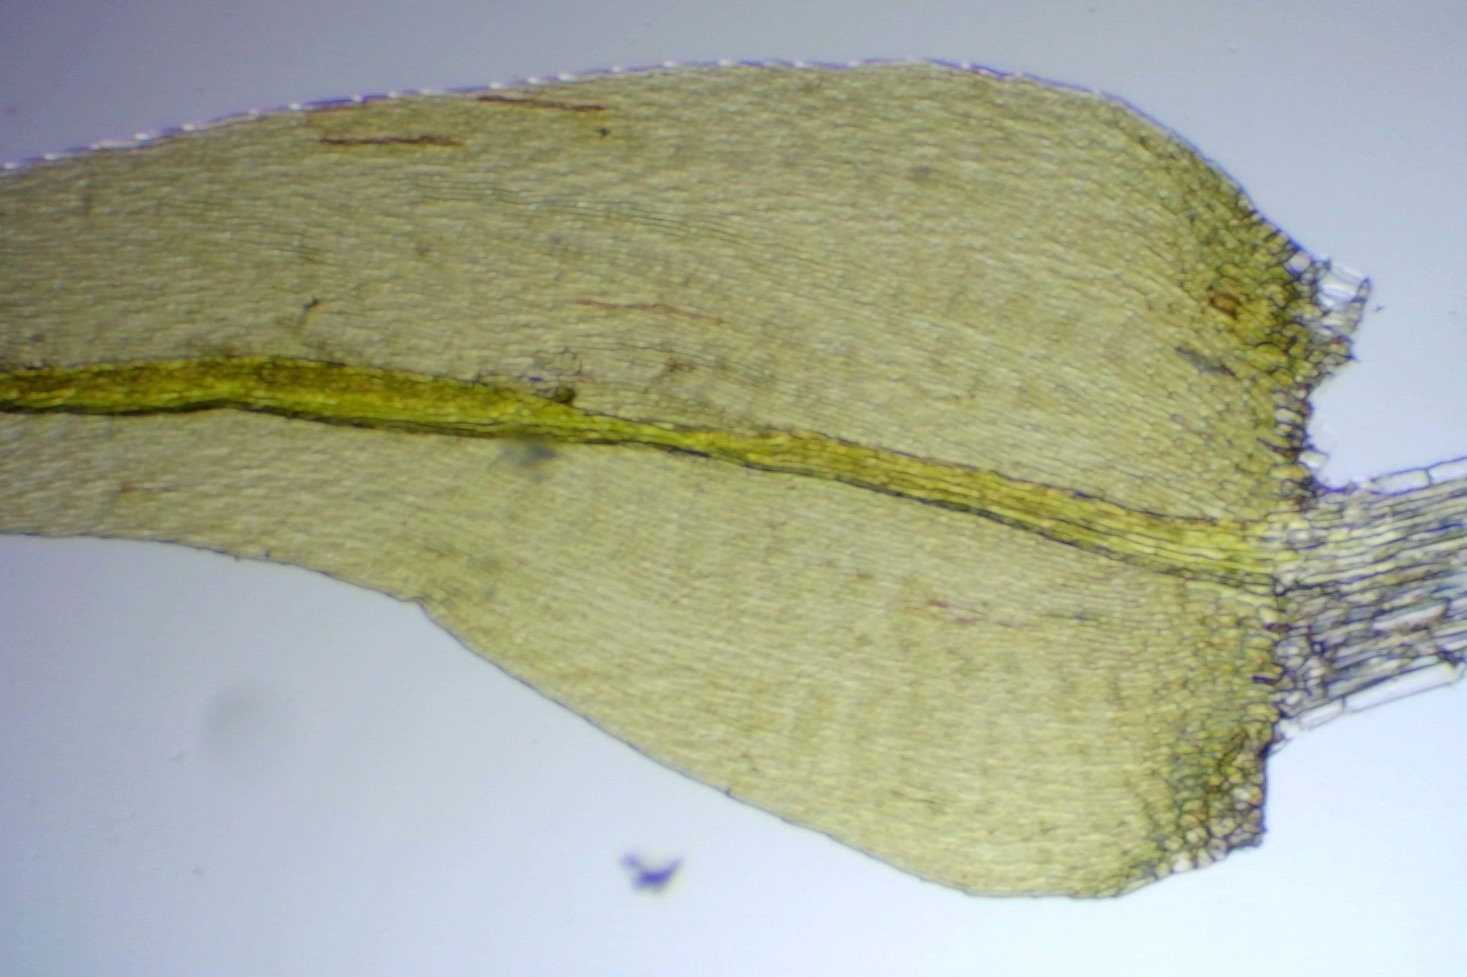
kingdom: Plantae
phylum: Bryophyta
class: Bryopsida
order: Hypnales
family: Scorpidiaceae
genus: Sanionia
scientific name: Sanionia uncinata
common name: Stribet krogblad
